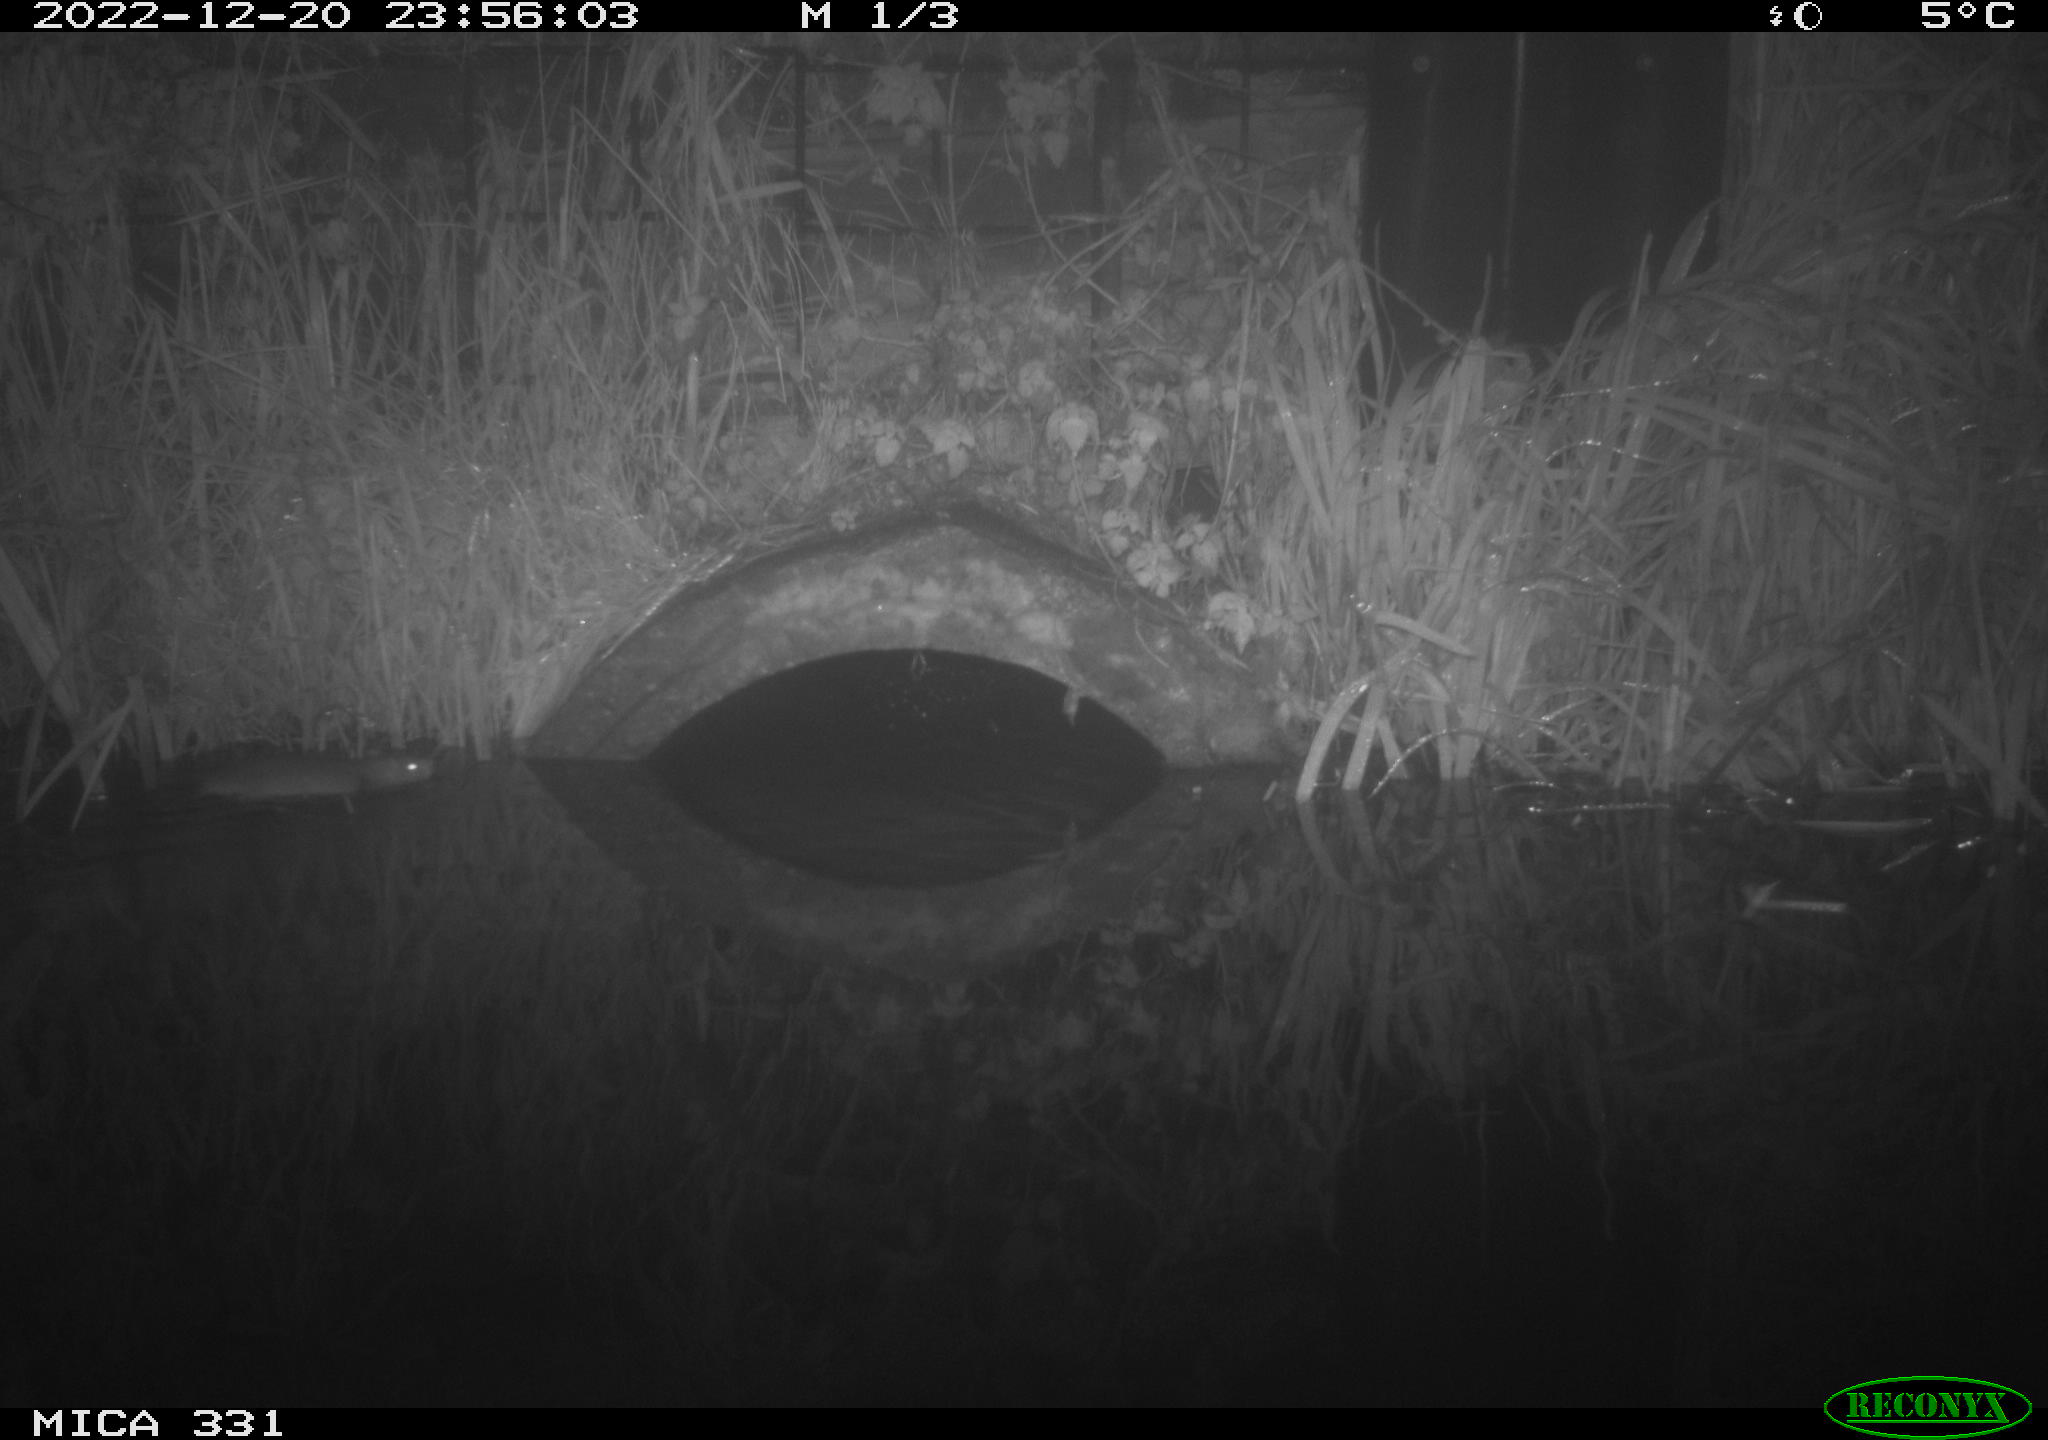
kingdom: Animalia
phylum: Chordata
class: Mammalia
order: Rodentia
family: Muridae
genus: Rattus
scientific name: Rattus norvegicus
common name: Brown rat
